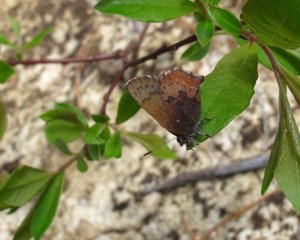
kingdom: Animalia
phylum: Arthropoda
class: Insecta
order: Lepidoptera
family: Lycaenidae
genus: Incisalia
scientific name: Incisalia irioides
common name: Brown Elfin
